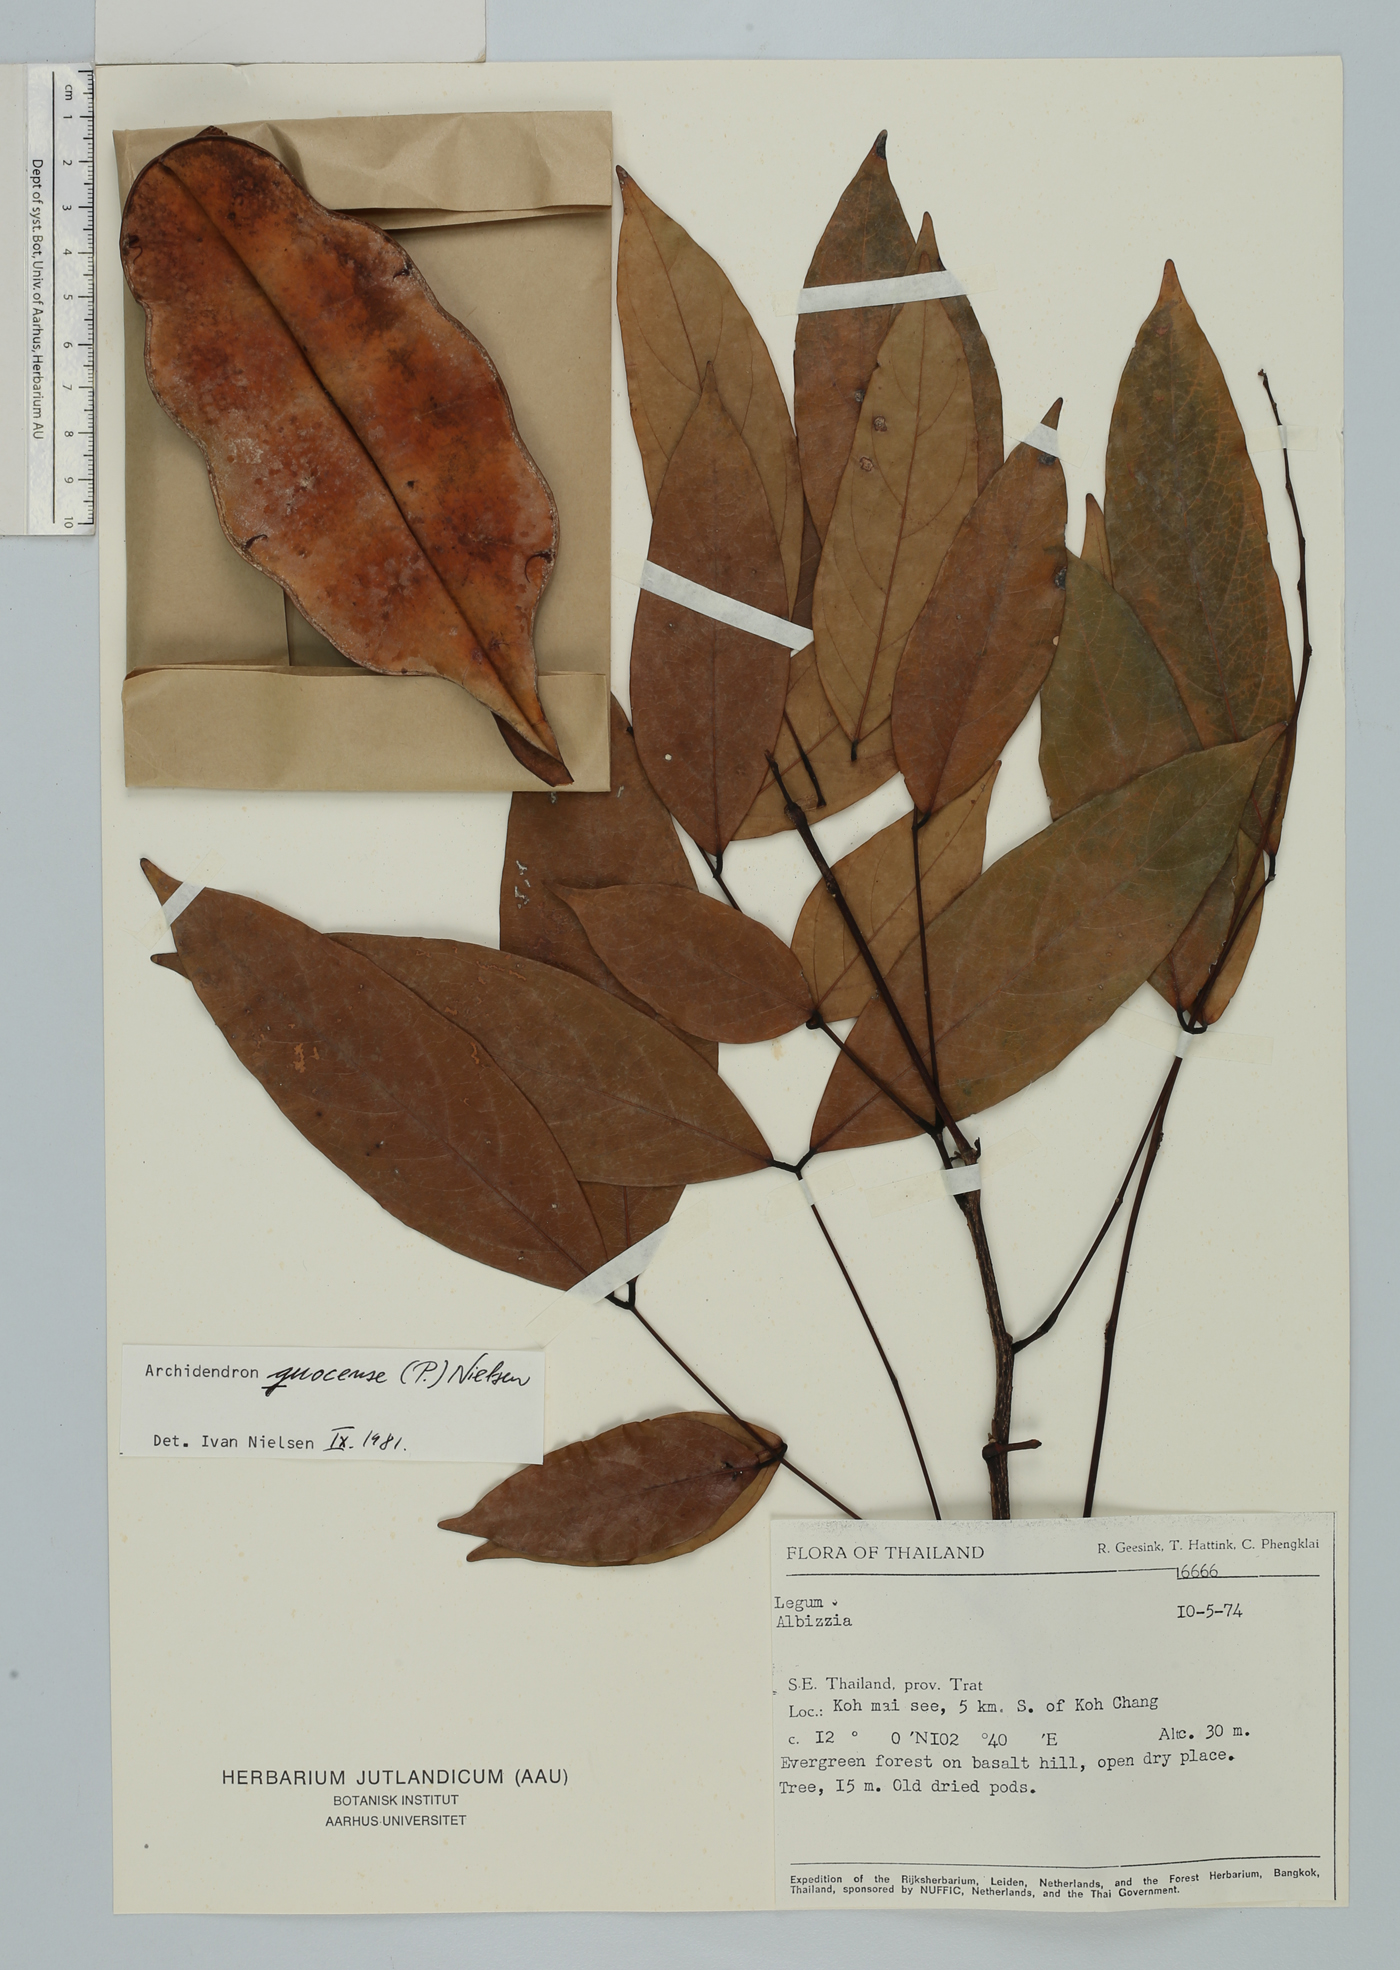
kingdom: Plantae
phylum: Tracheophyta
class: Magnoliopsida
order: Fabales
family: Fabaceae
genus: Archidendron
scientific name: Archidendron quocense
